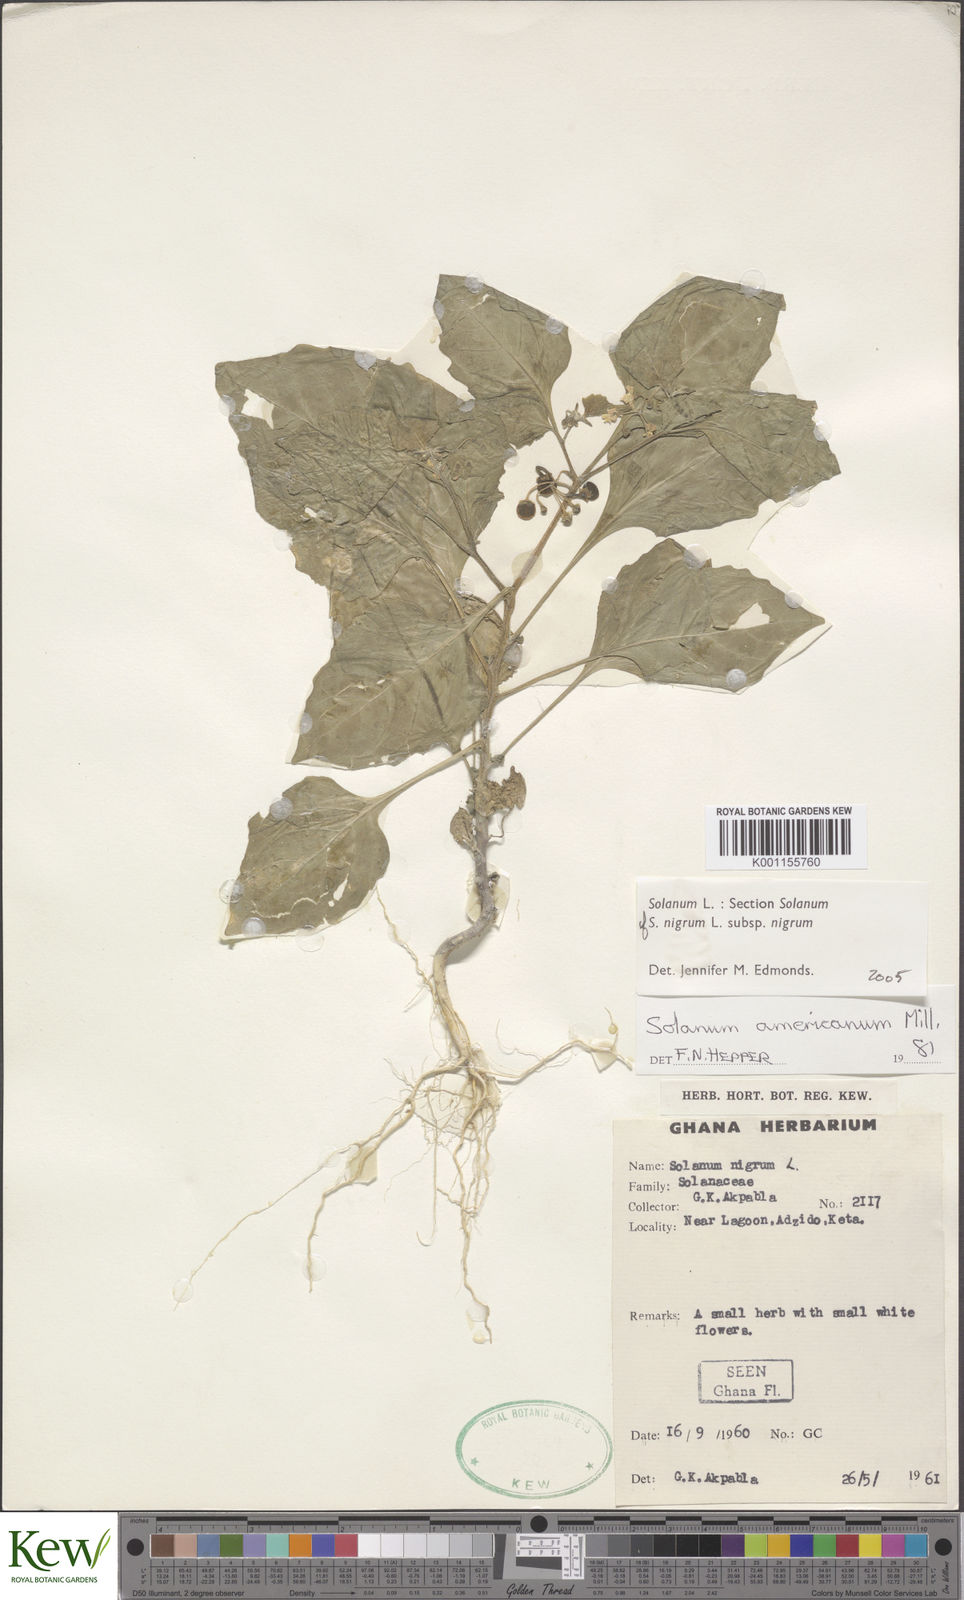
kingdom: Plantae
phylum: Tracheophyta
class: Magnoliopsida
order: Solanales
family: Solanaceae
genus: Solanum
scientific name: Solanum scabrum
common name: Garden-huckleberry
